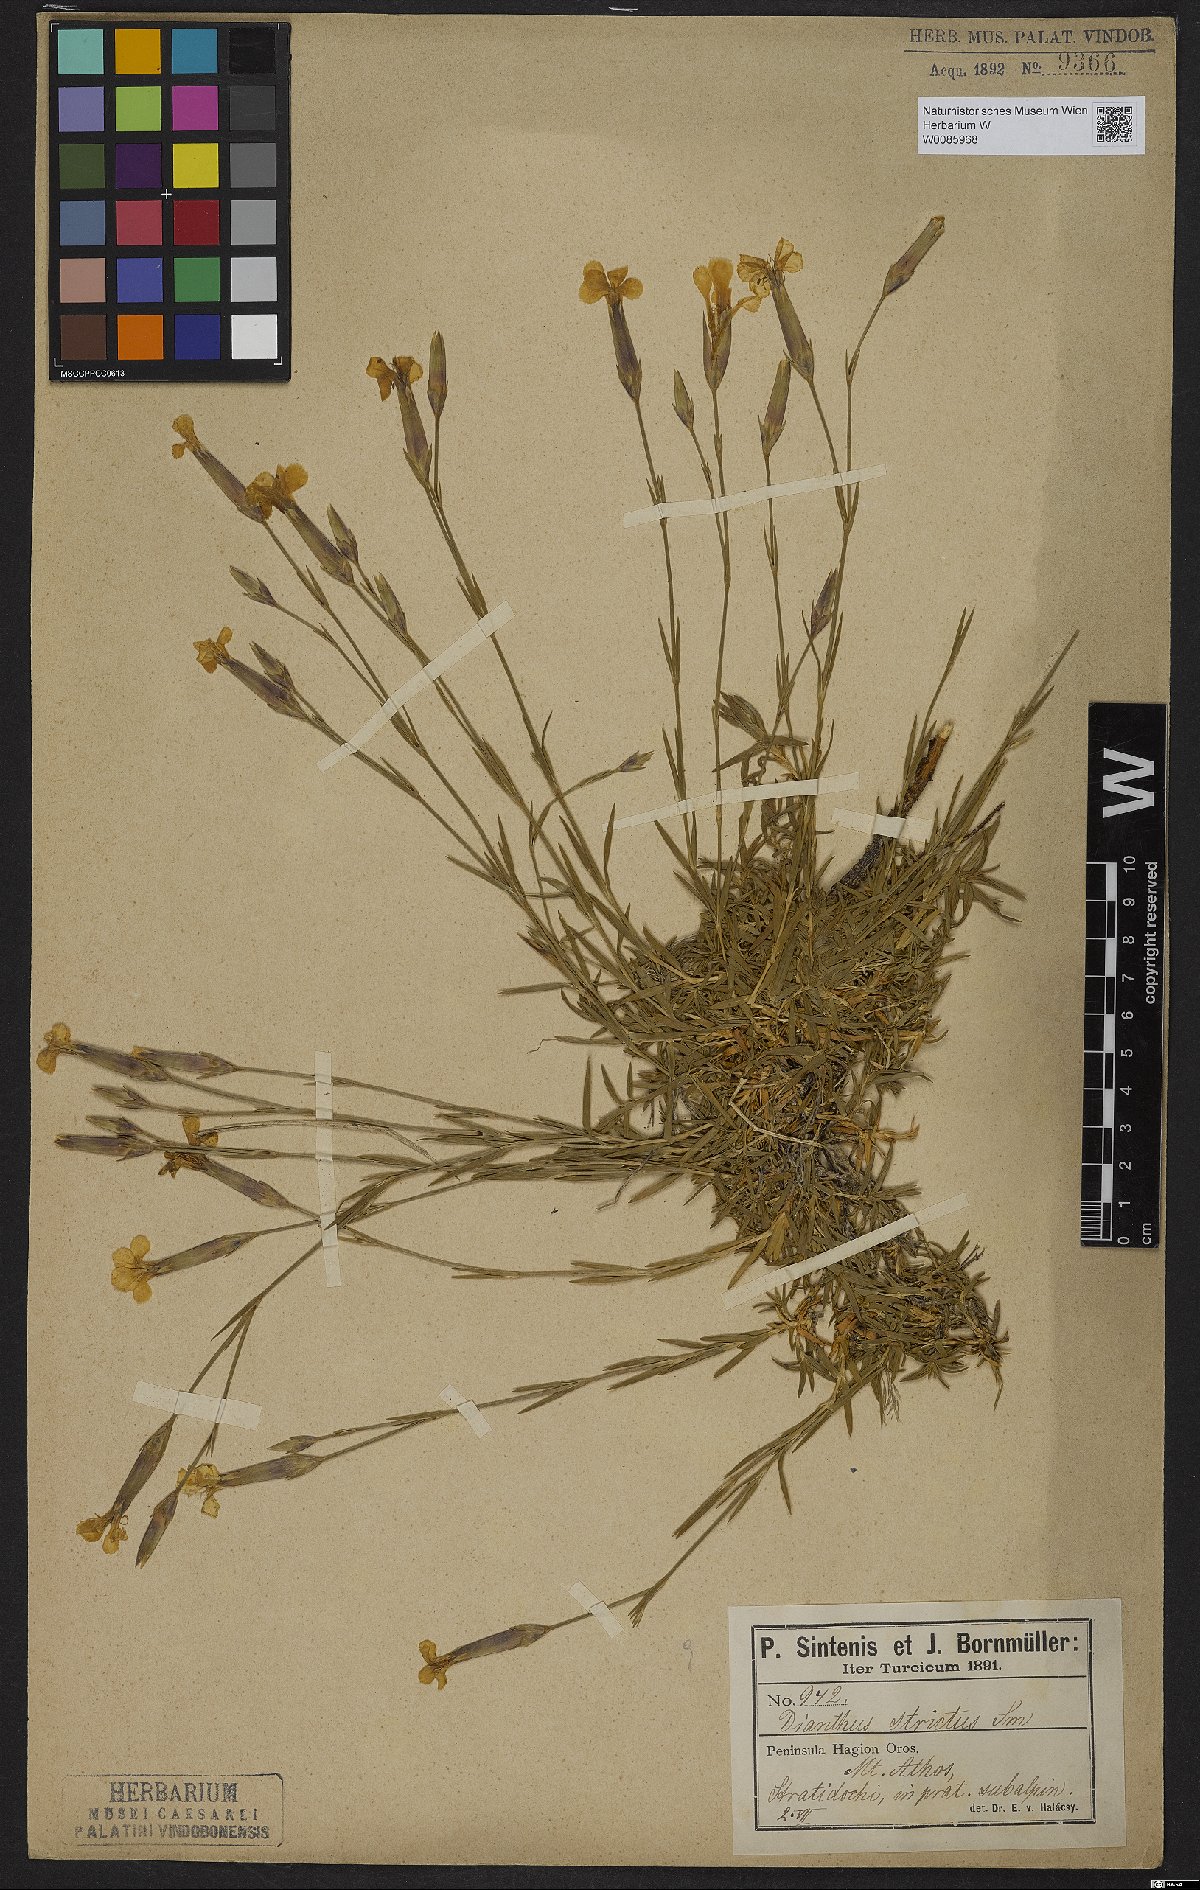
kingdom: Plantae
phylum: Tracheophyta
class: Magnoliopsida
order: Caryophyllales
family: Caryophyllaceae
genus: Dianthus
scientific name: Dianthus petraeus
